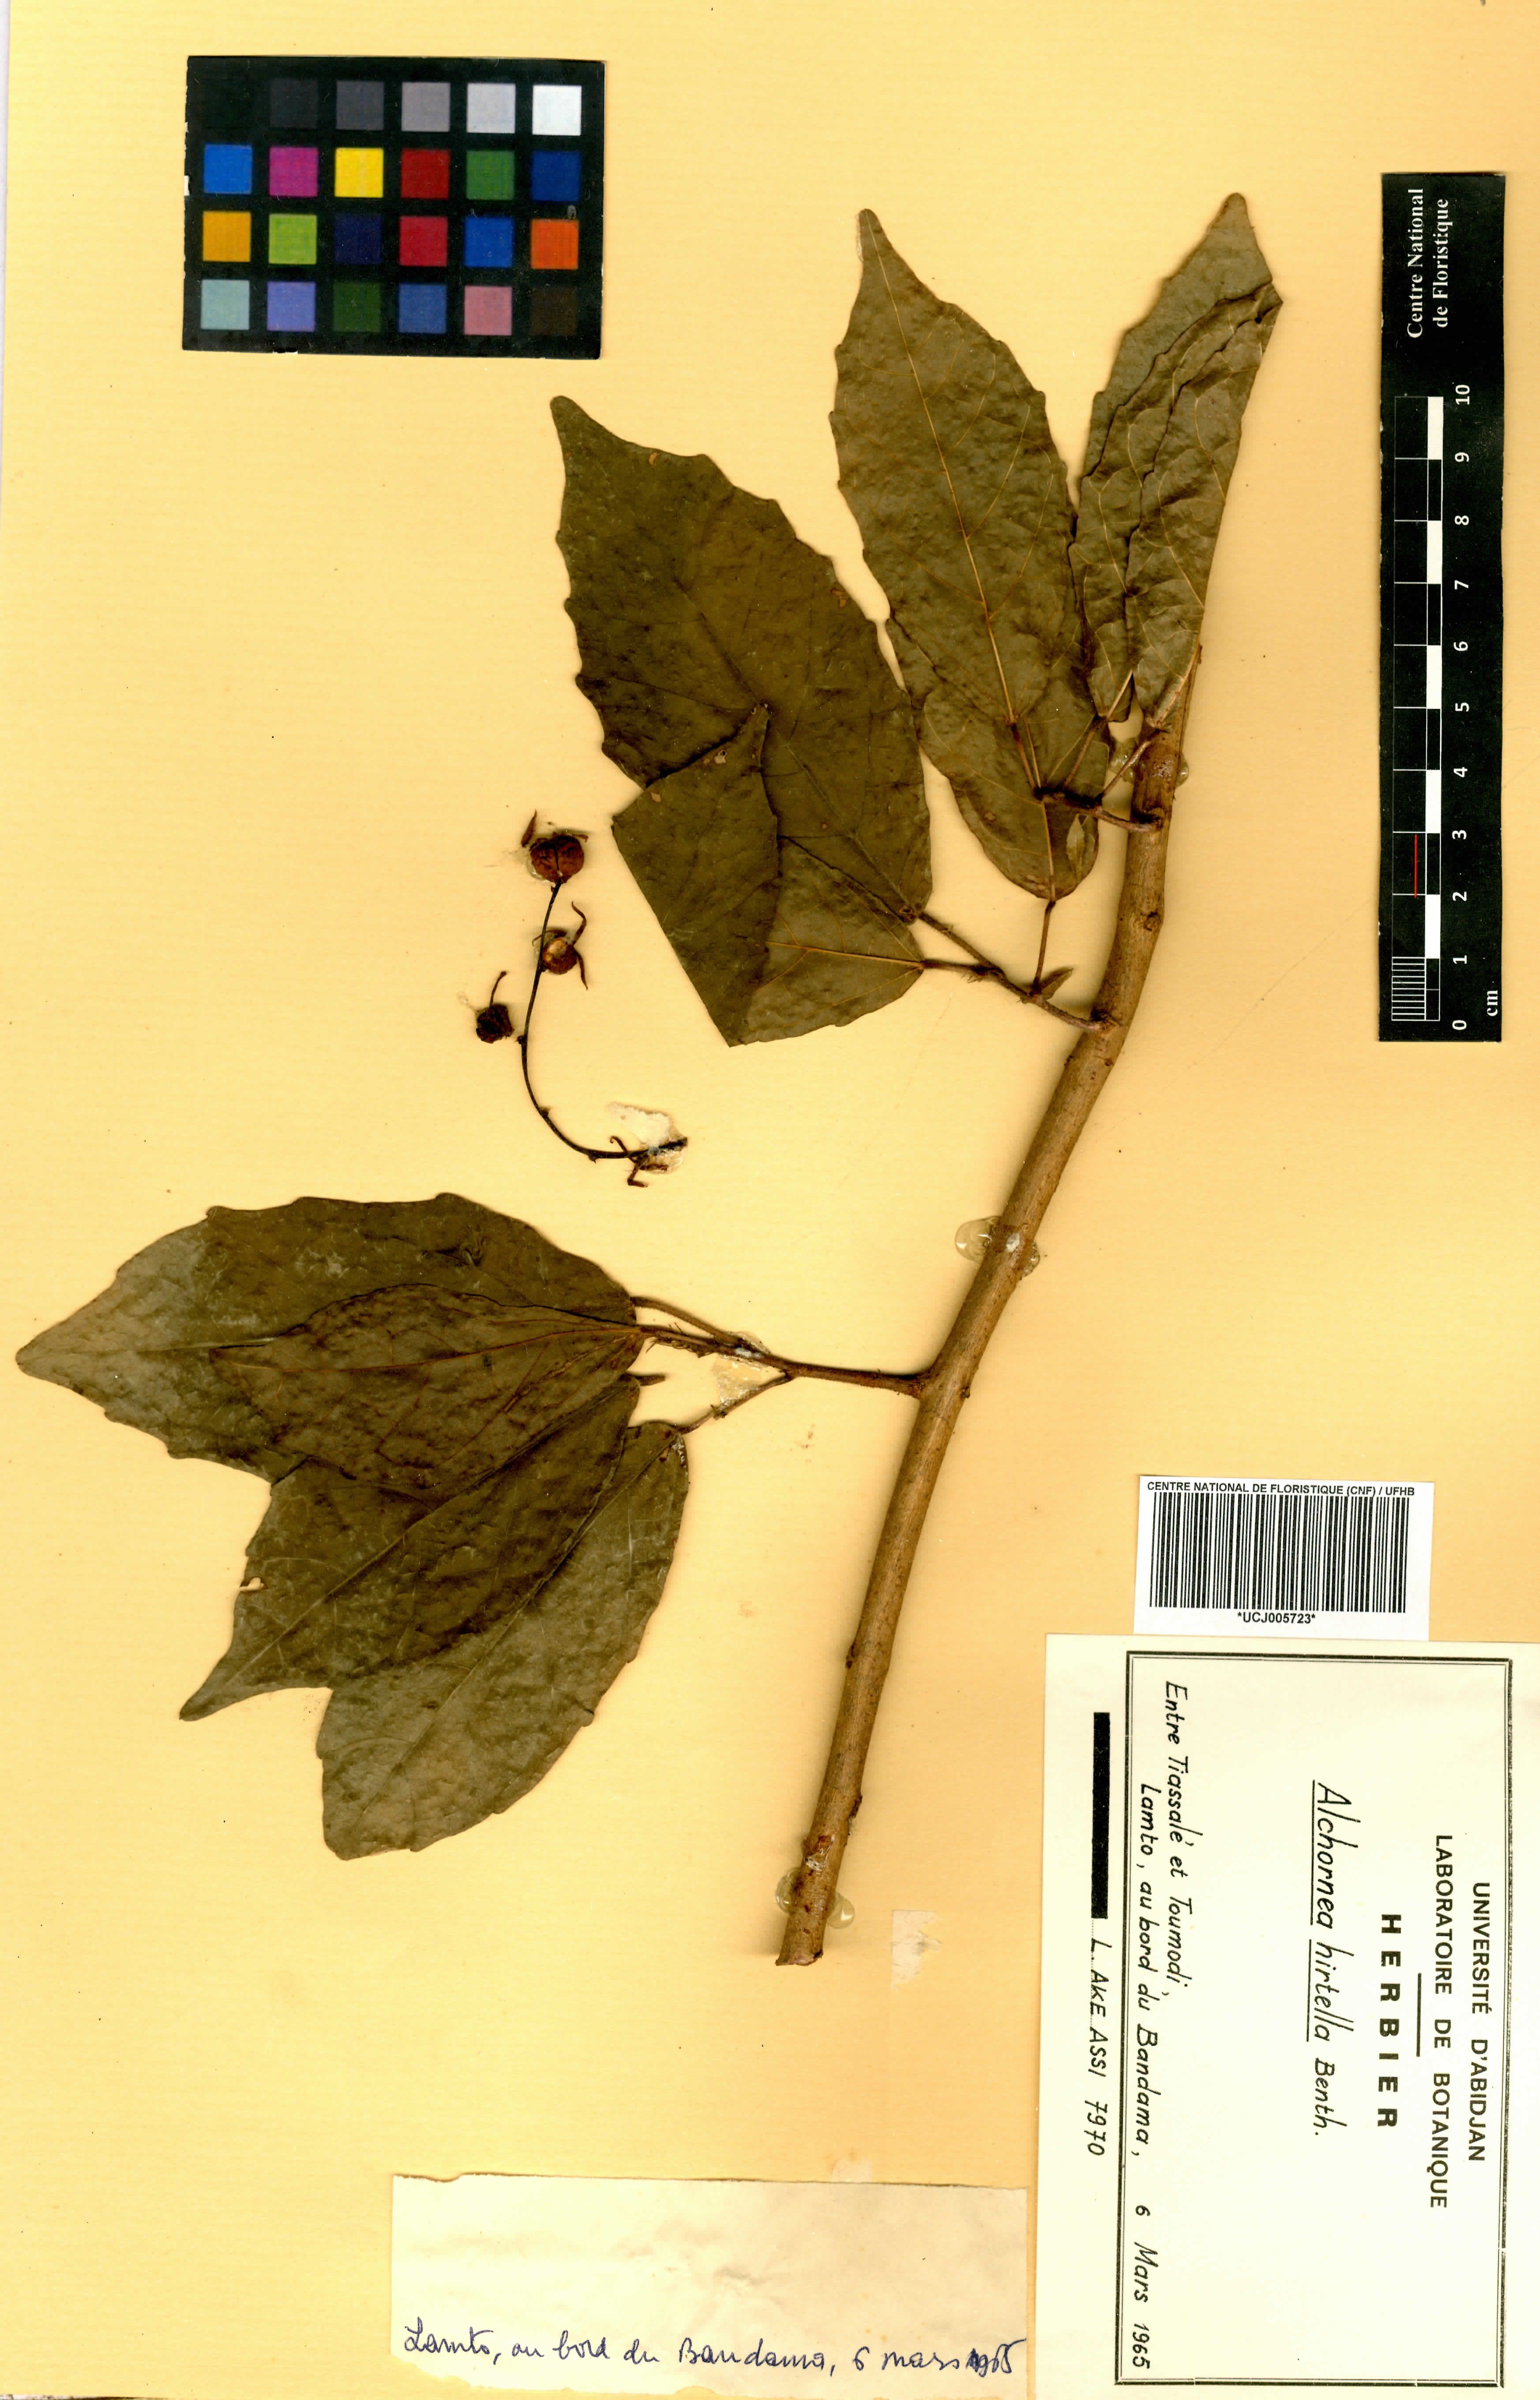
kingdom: Plantae
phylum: Tracheophyta
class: Magnoliopsida
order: Malpighiales
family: Euphorbiaceae
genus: Alchornea
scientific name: Alchornea hirtella
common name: Forest bead-string
